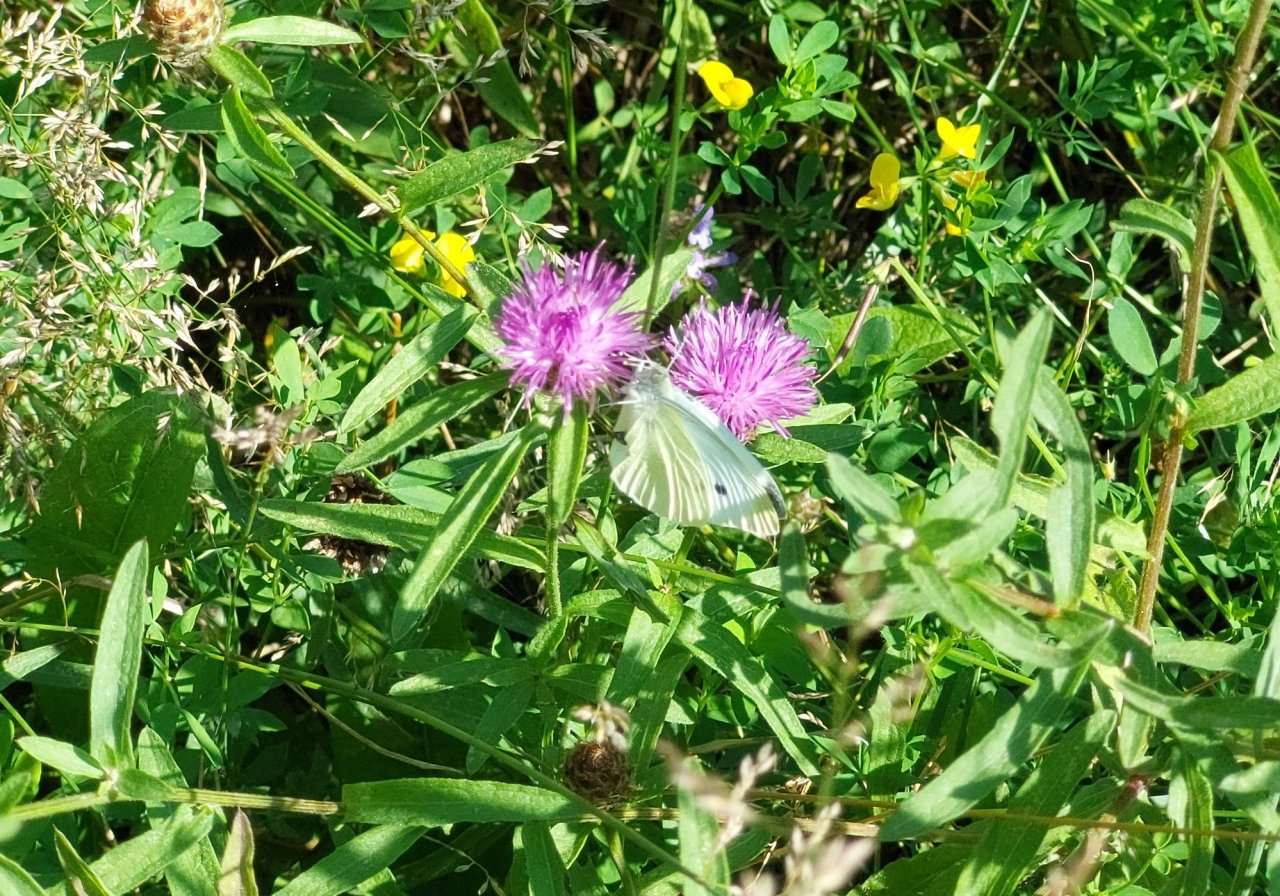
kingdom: Animalia
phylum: Arthropoda
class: Insecta
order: Lepidoptera
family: Pieridae
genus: Pieris
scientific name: Pieris rapae
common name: Cabbage White
